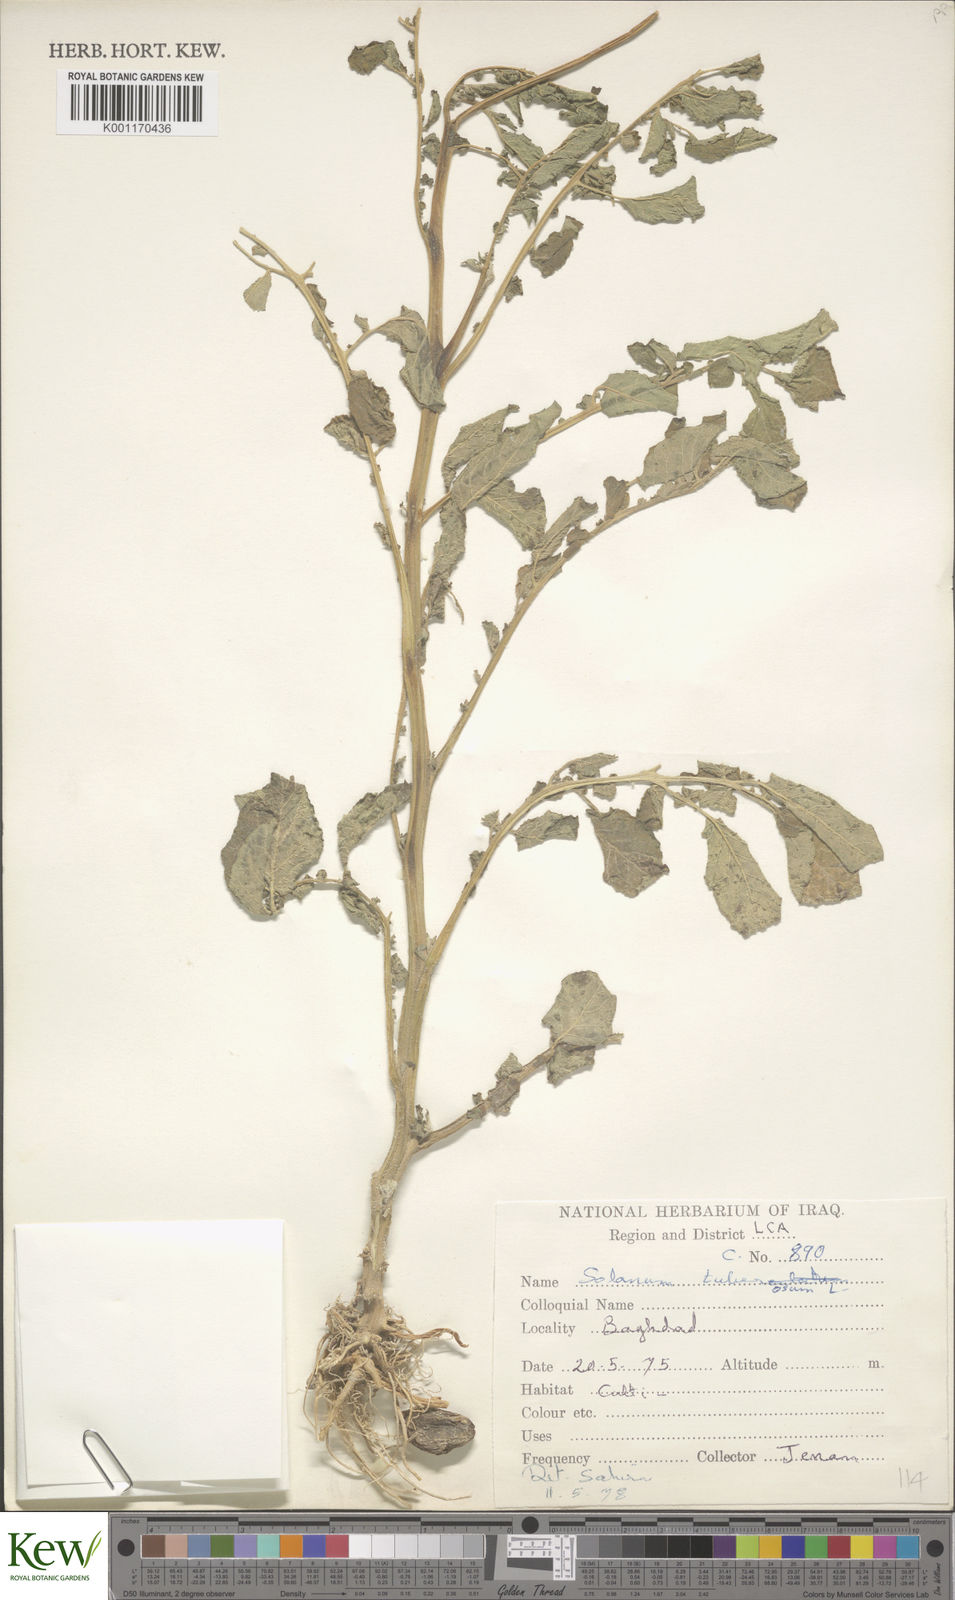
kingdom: Plantae
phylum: Tracheophyta
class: Magnoliopsida
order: Solanales
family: Solanaceae
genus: Solanum
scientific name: Solanum tuberosum
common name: Potato
